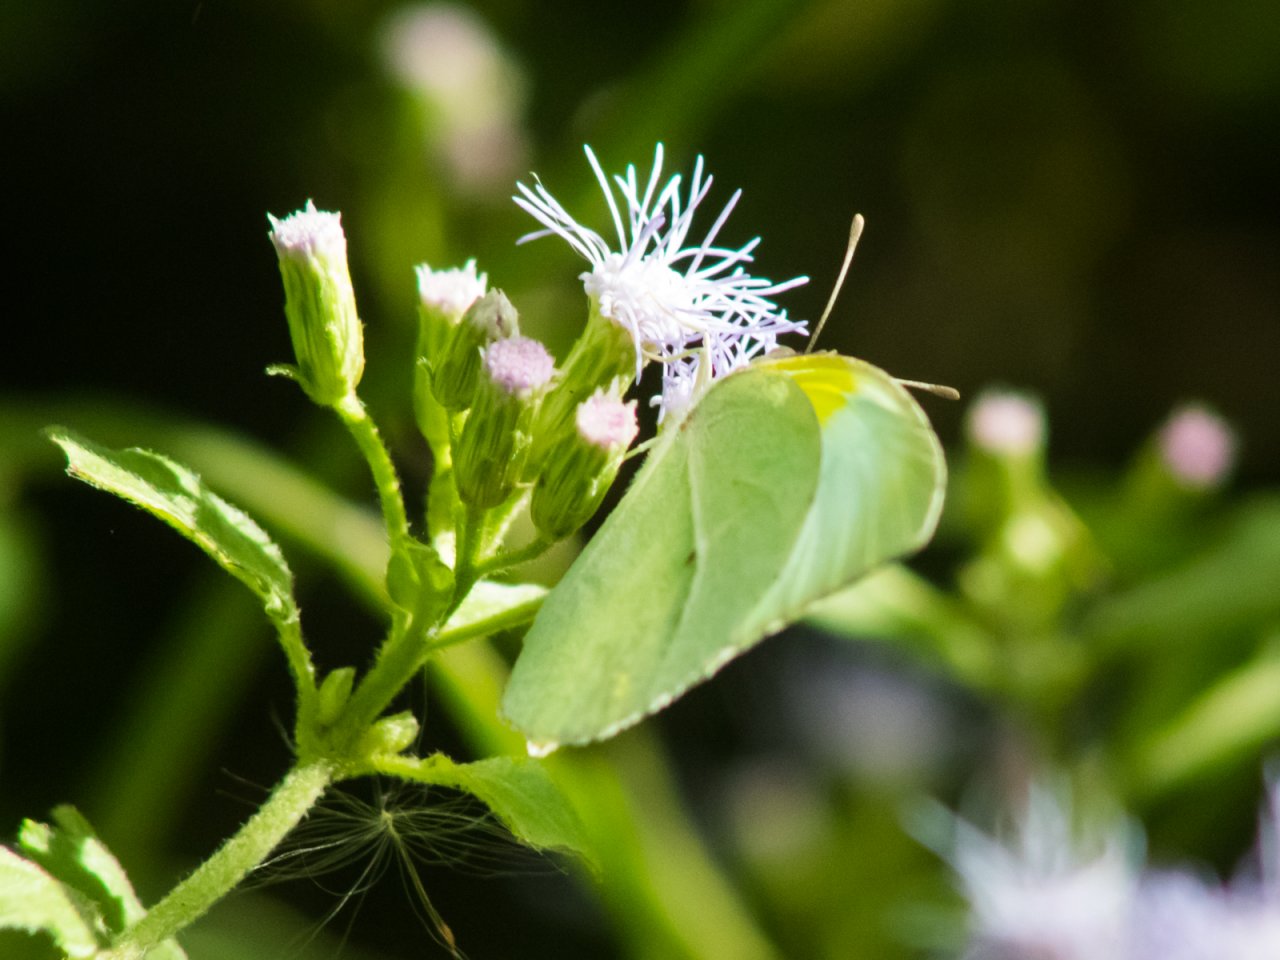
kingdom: Animalia
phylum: Arthropoda
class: Insecta
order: Lepidoptera
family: Pieridae
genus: Kricogonia
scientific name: Kricogonia lyside
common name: Lyside Sulphur
